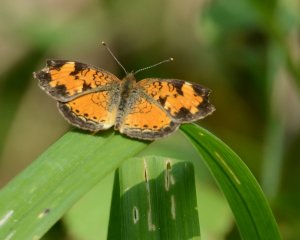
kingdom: Animalia
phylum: Arthropoda
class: Insecta
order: Lepidoptera
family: Nymphalidae
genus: Phyciodes
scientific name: Phyciodes tharos
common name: Northern Crescent
